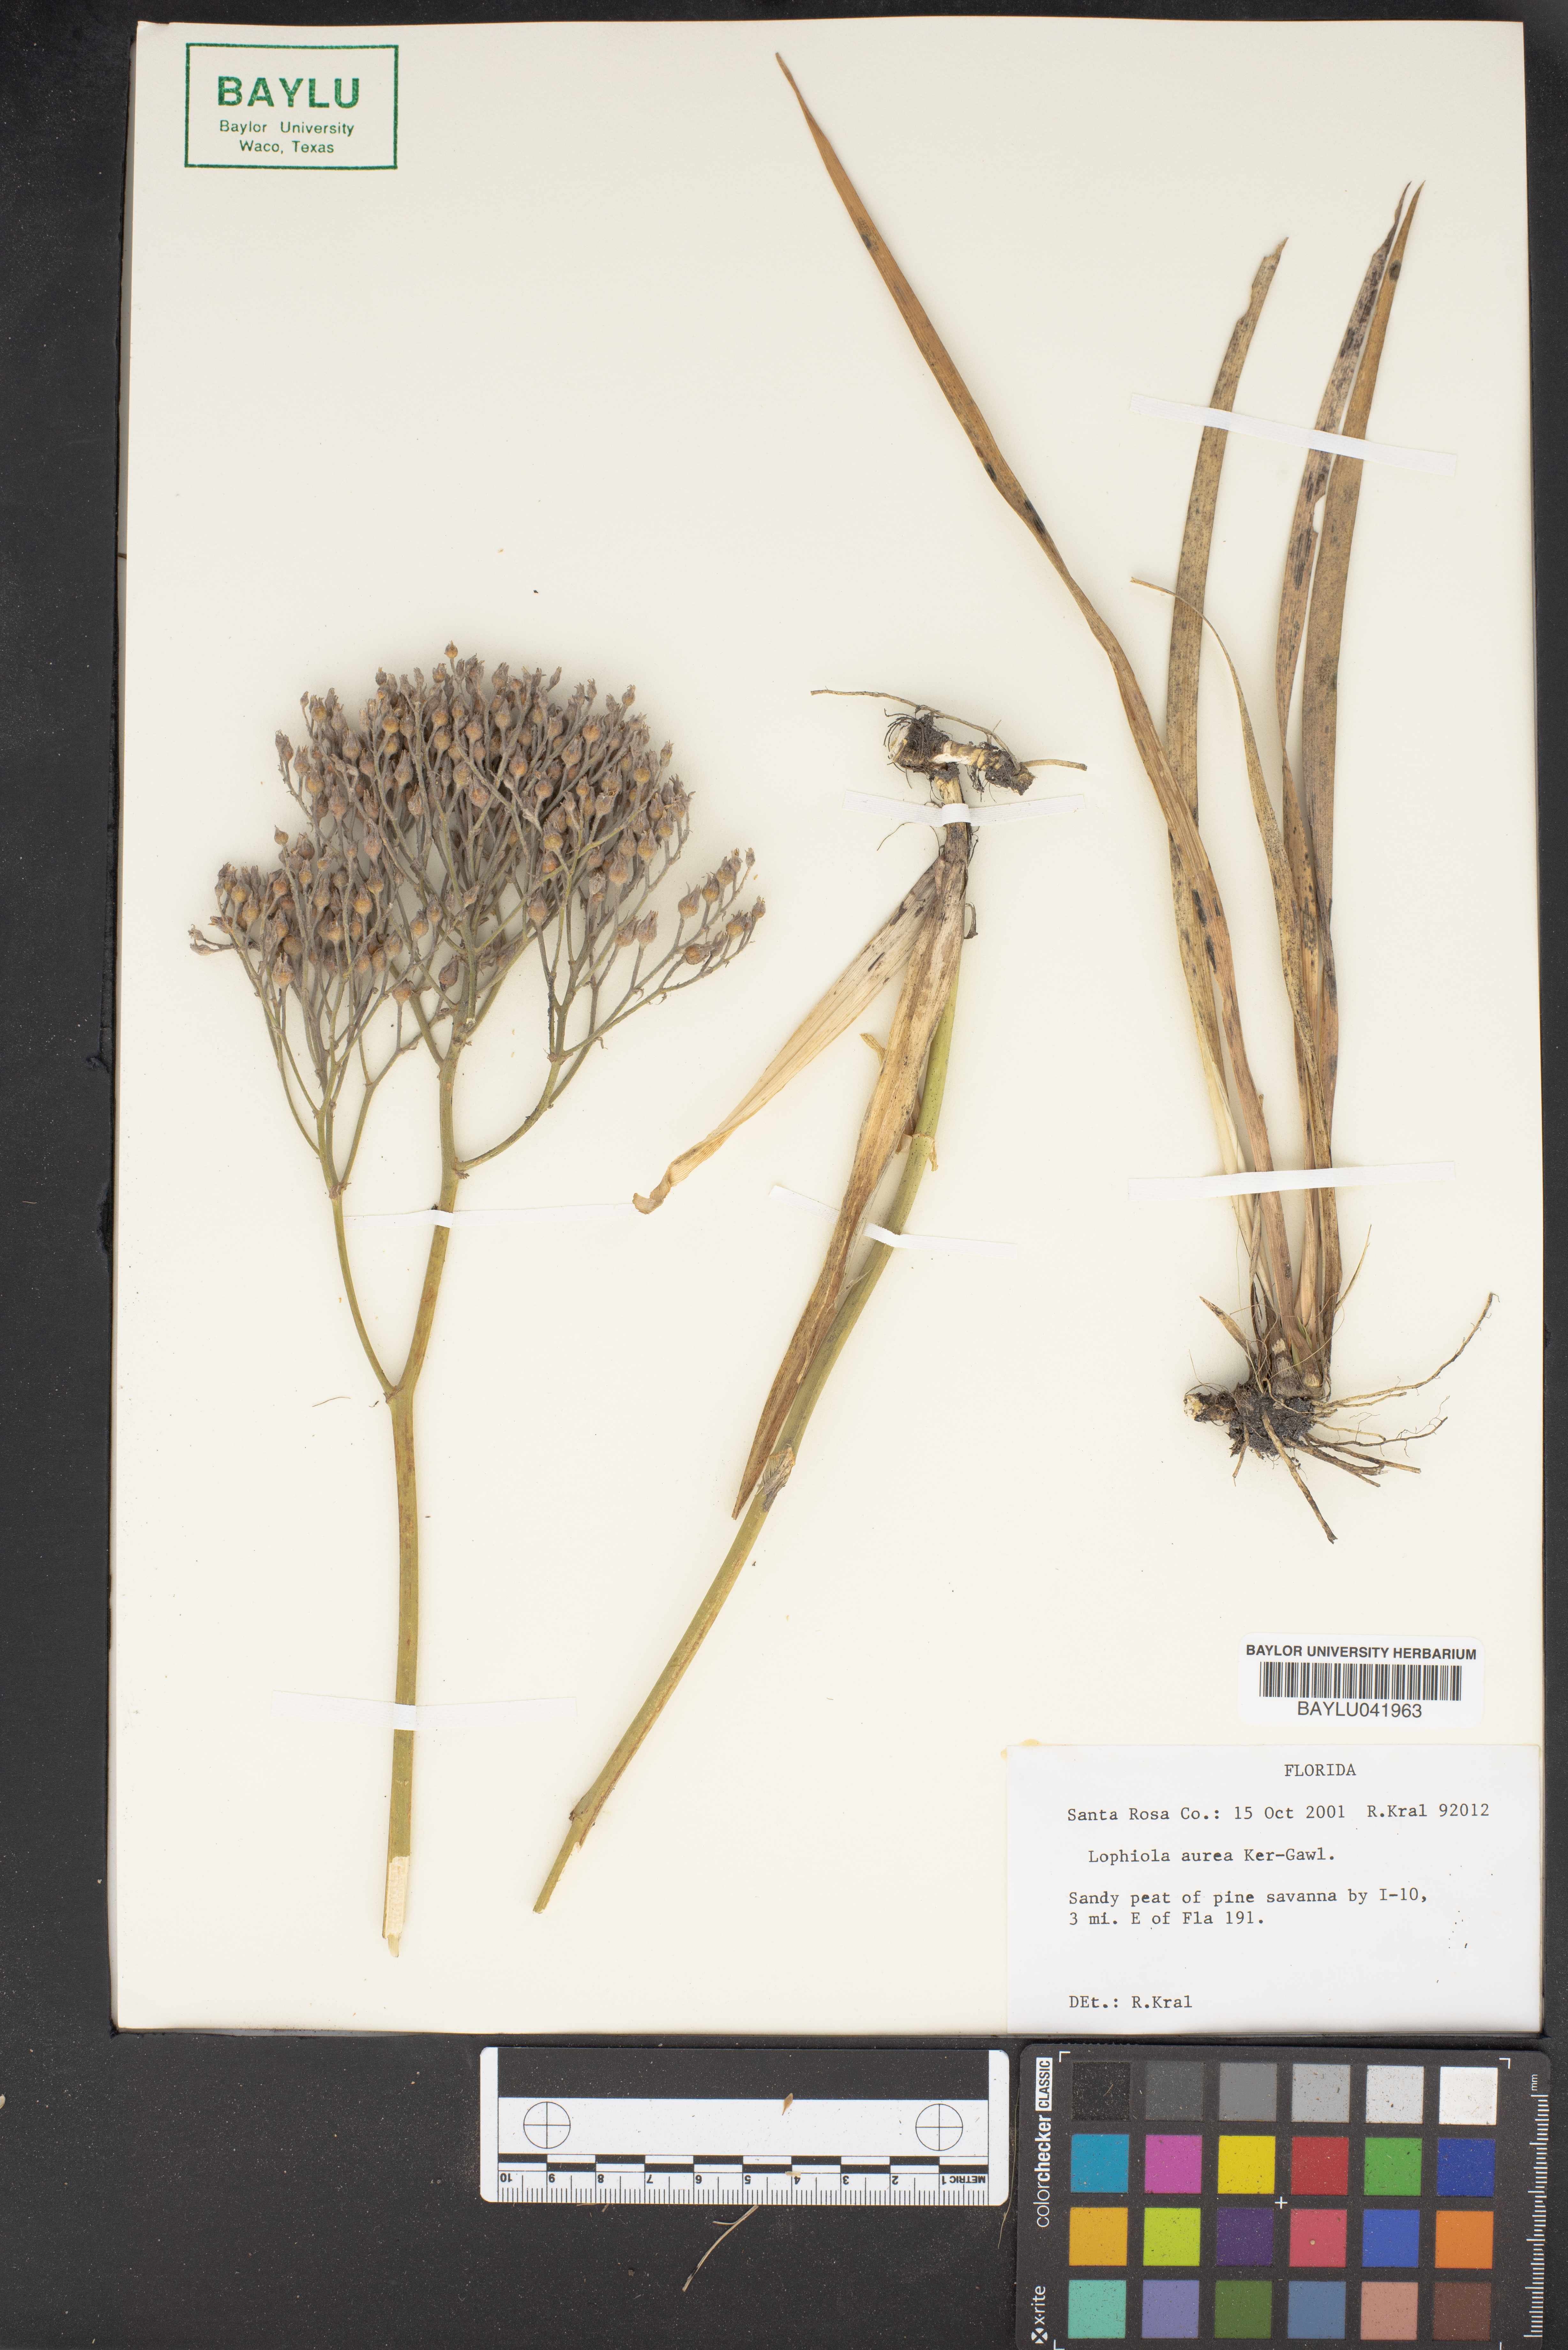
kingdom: Plantae
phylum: Tracheophyta
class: Liliopsida
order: Dioscoreales
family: Nartheciaceae
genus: Lophiola
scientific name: Lophiola aurea
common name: Golden-crest
